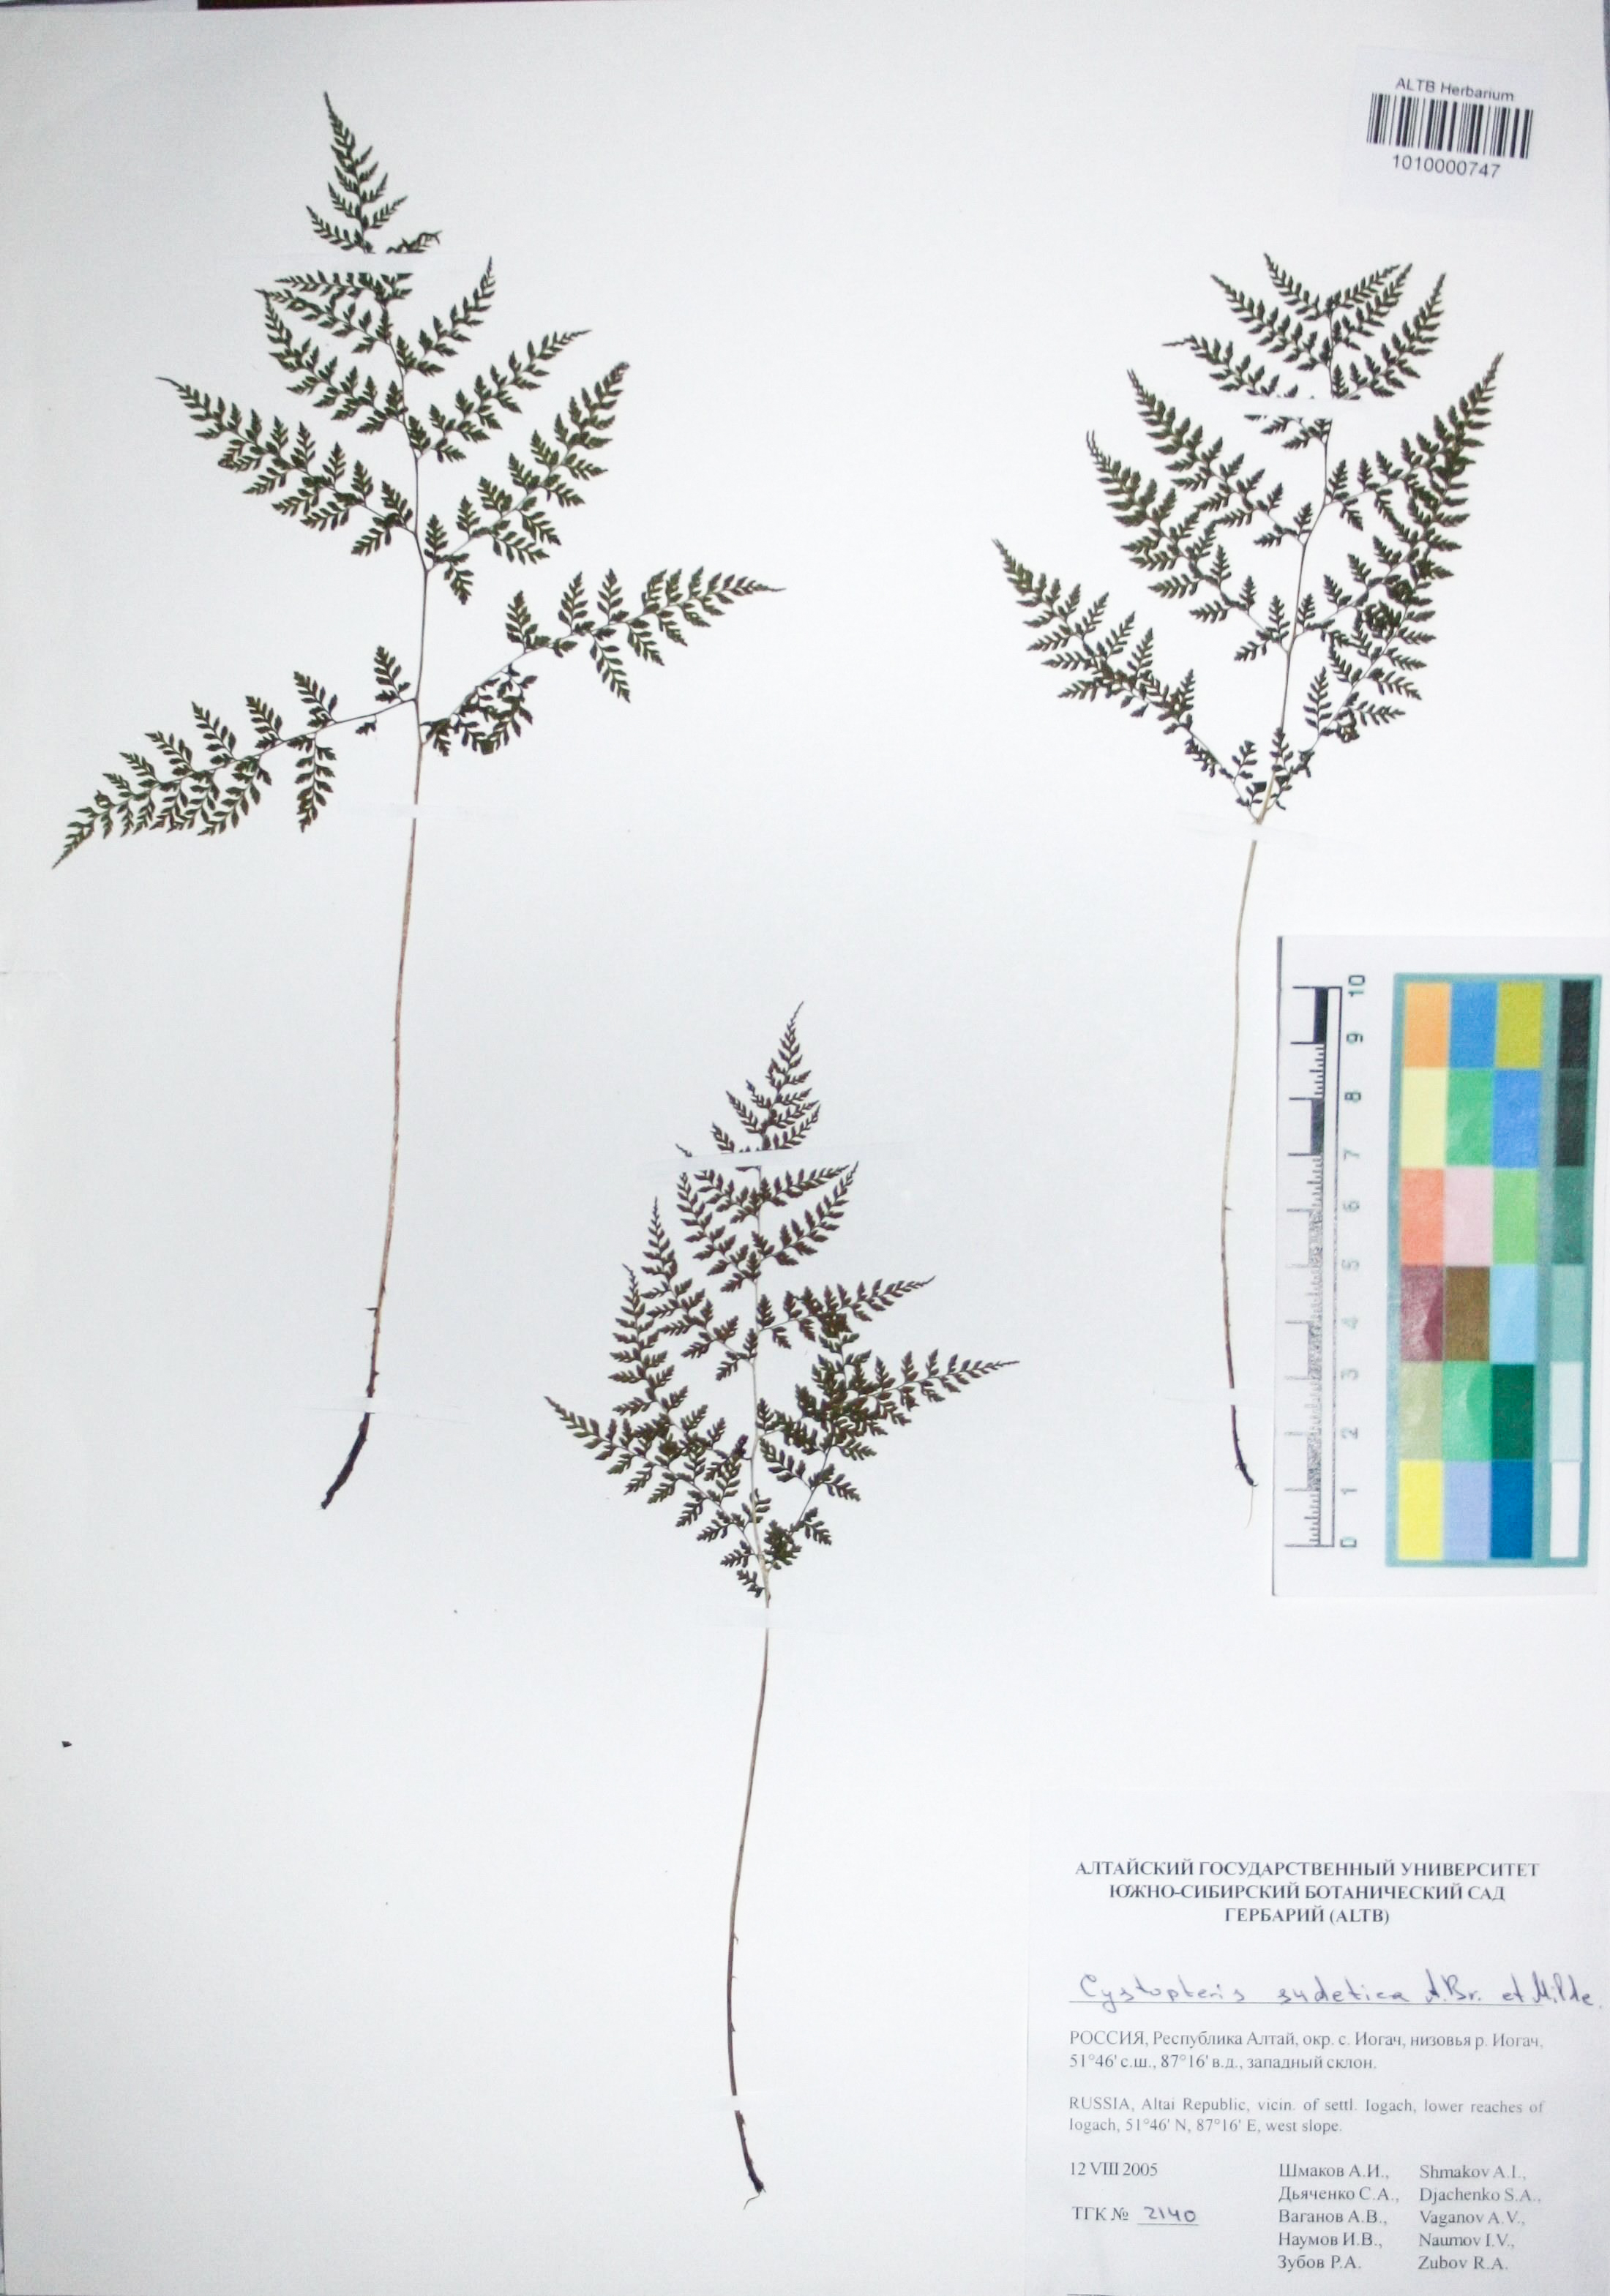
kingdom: Plantae
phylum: Tracheophyta
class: Polypodiopsida
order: Polypodiales
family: Cystopteridaceae
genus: Cystopteris
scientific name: Cystopteris sudetica
